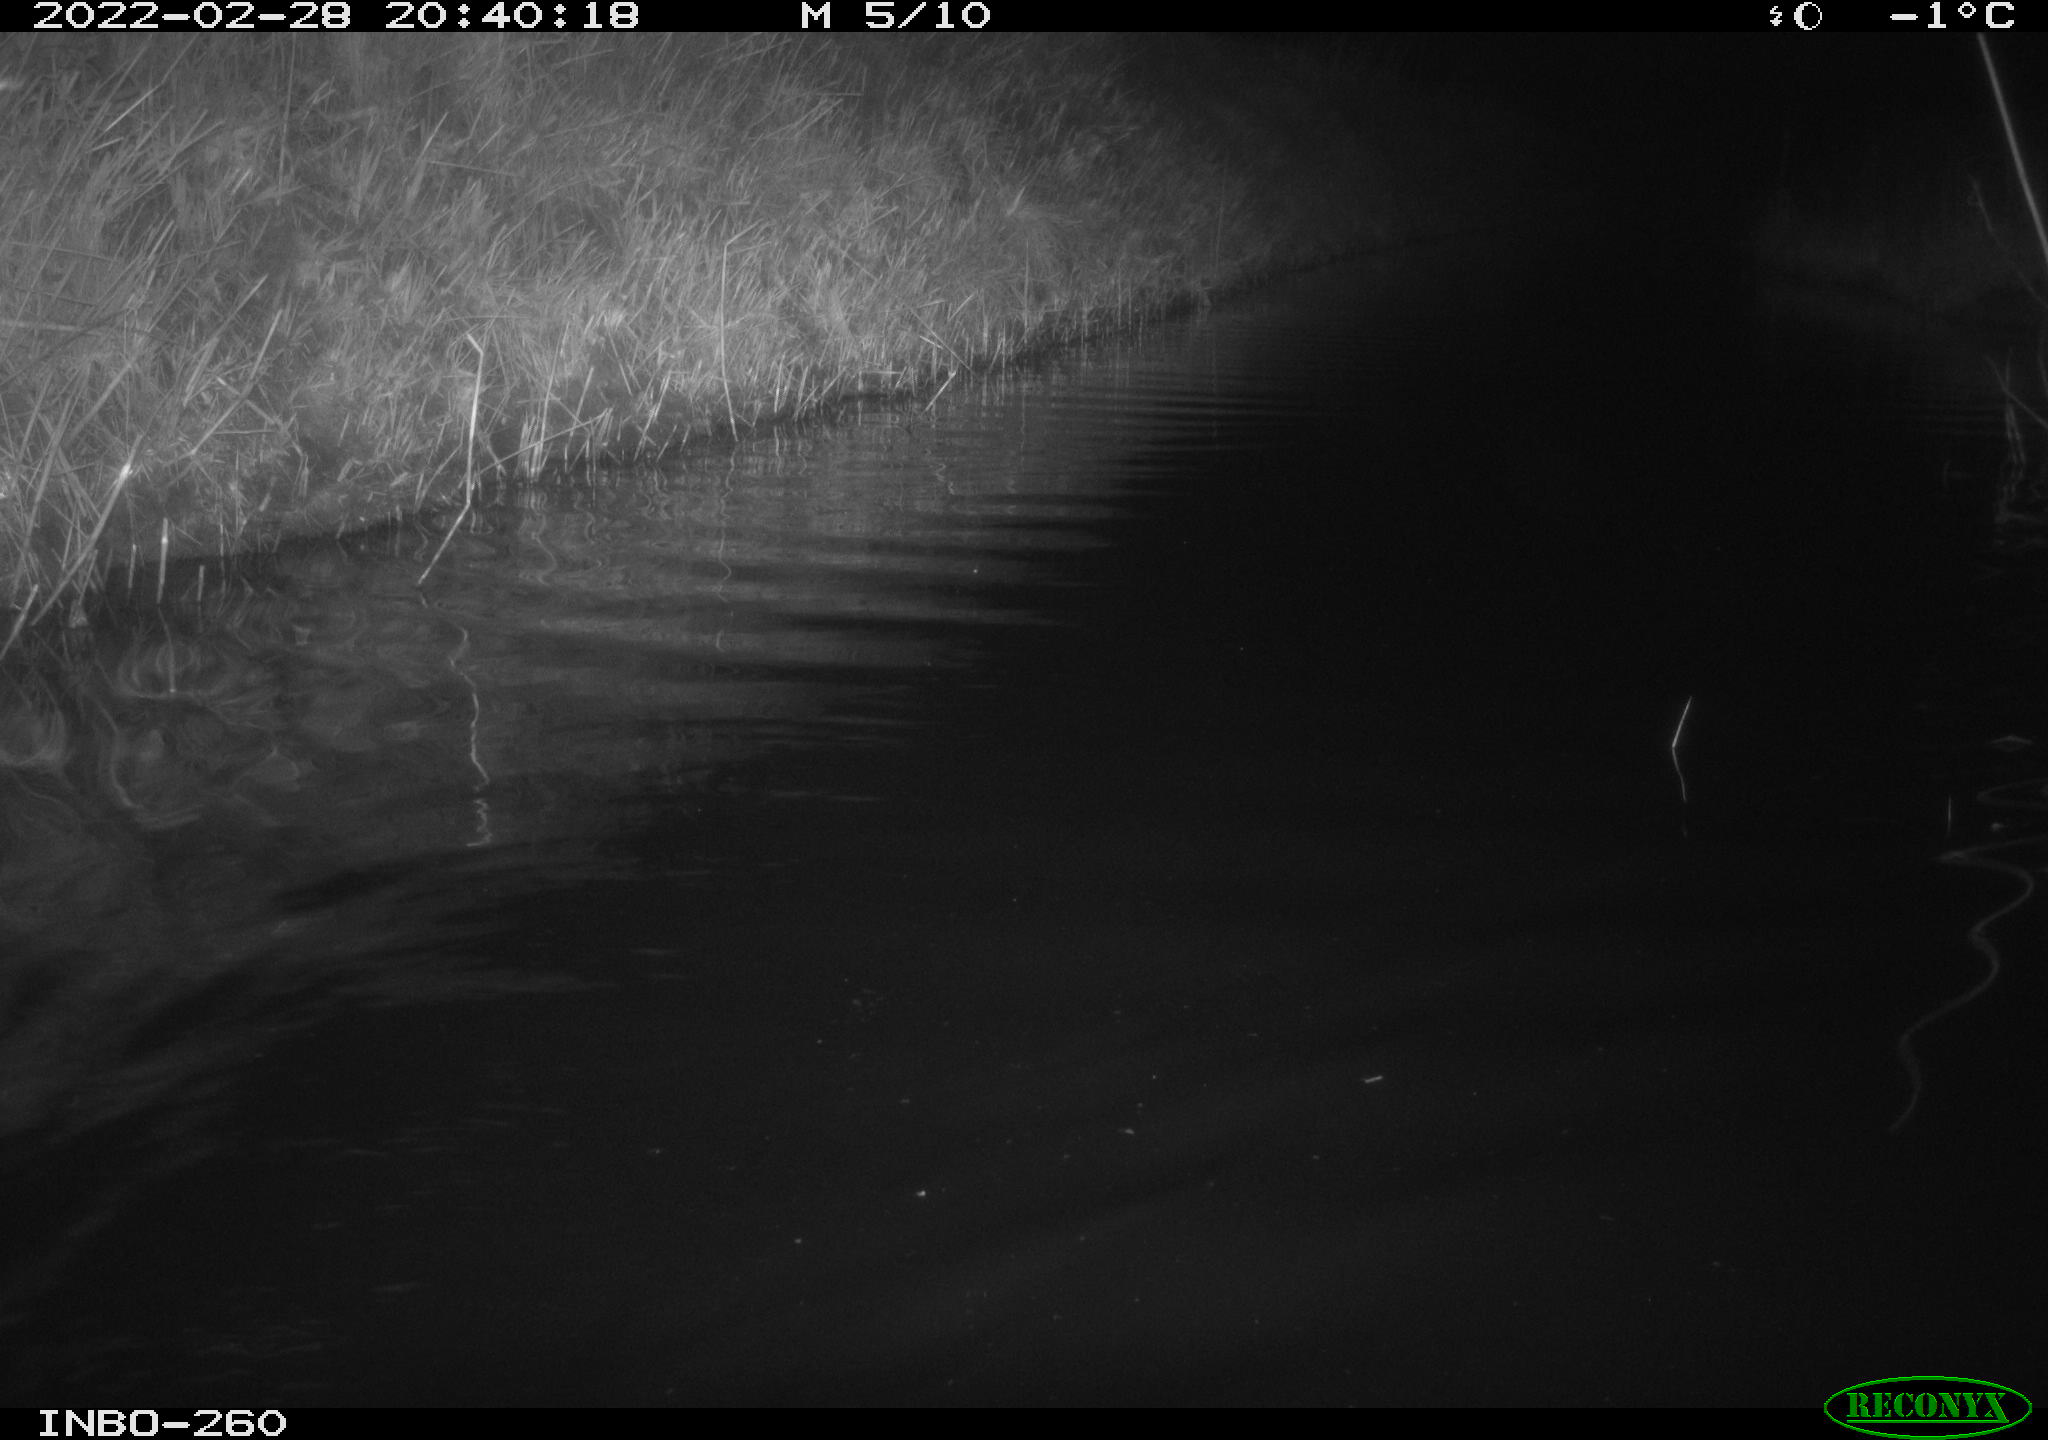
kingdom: Animalia
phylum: Chordata
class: Mammalia
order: Rodentia
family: Cricetidae
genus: Ondatra
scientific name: Ondatra zibethicus
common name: Muskrat
